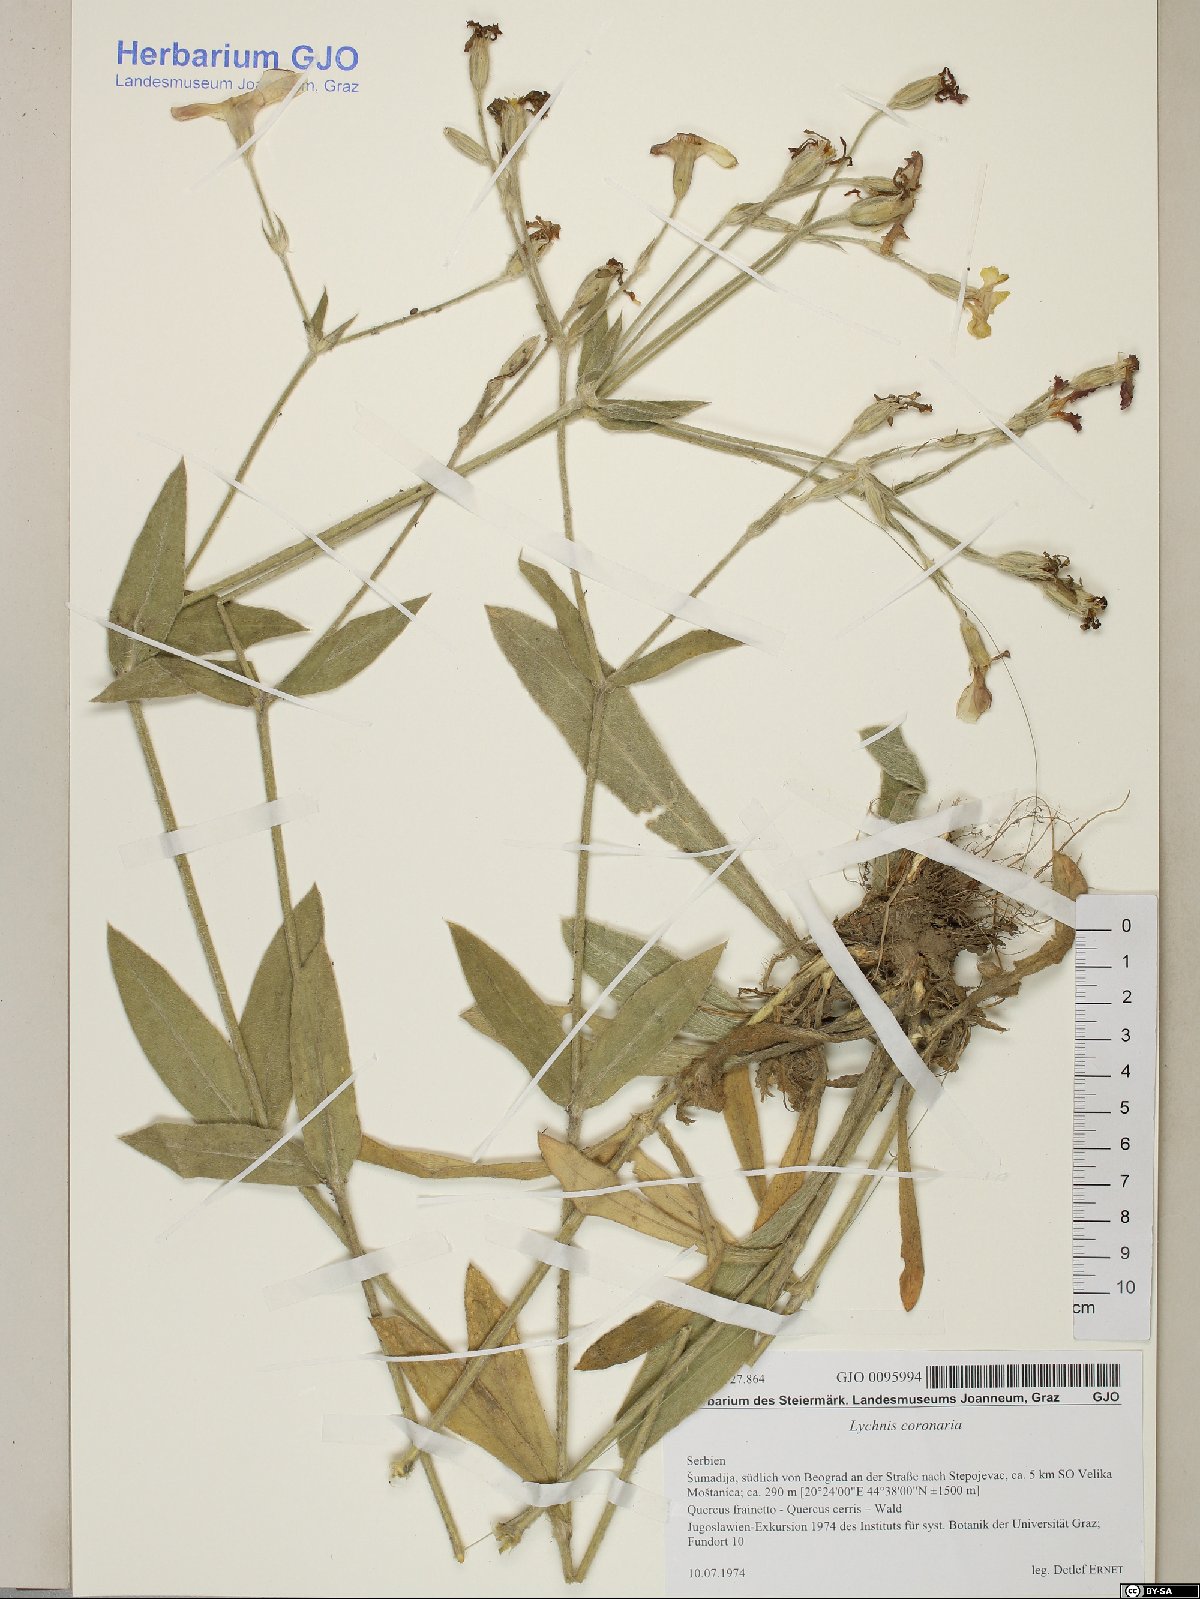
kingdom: Plantae
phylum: Tracheophyta
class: Magnoliopsida
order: Caryophyllales
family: Caryophyllaceae
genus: Silene
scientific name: Silene coronaria
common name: Rose campion
